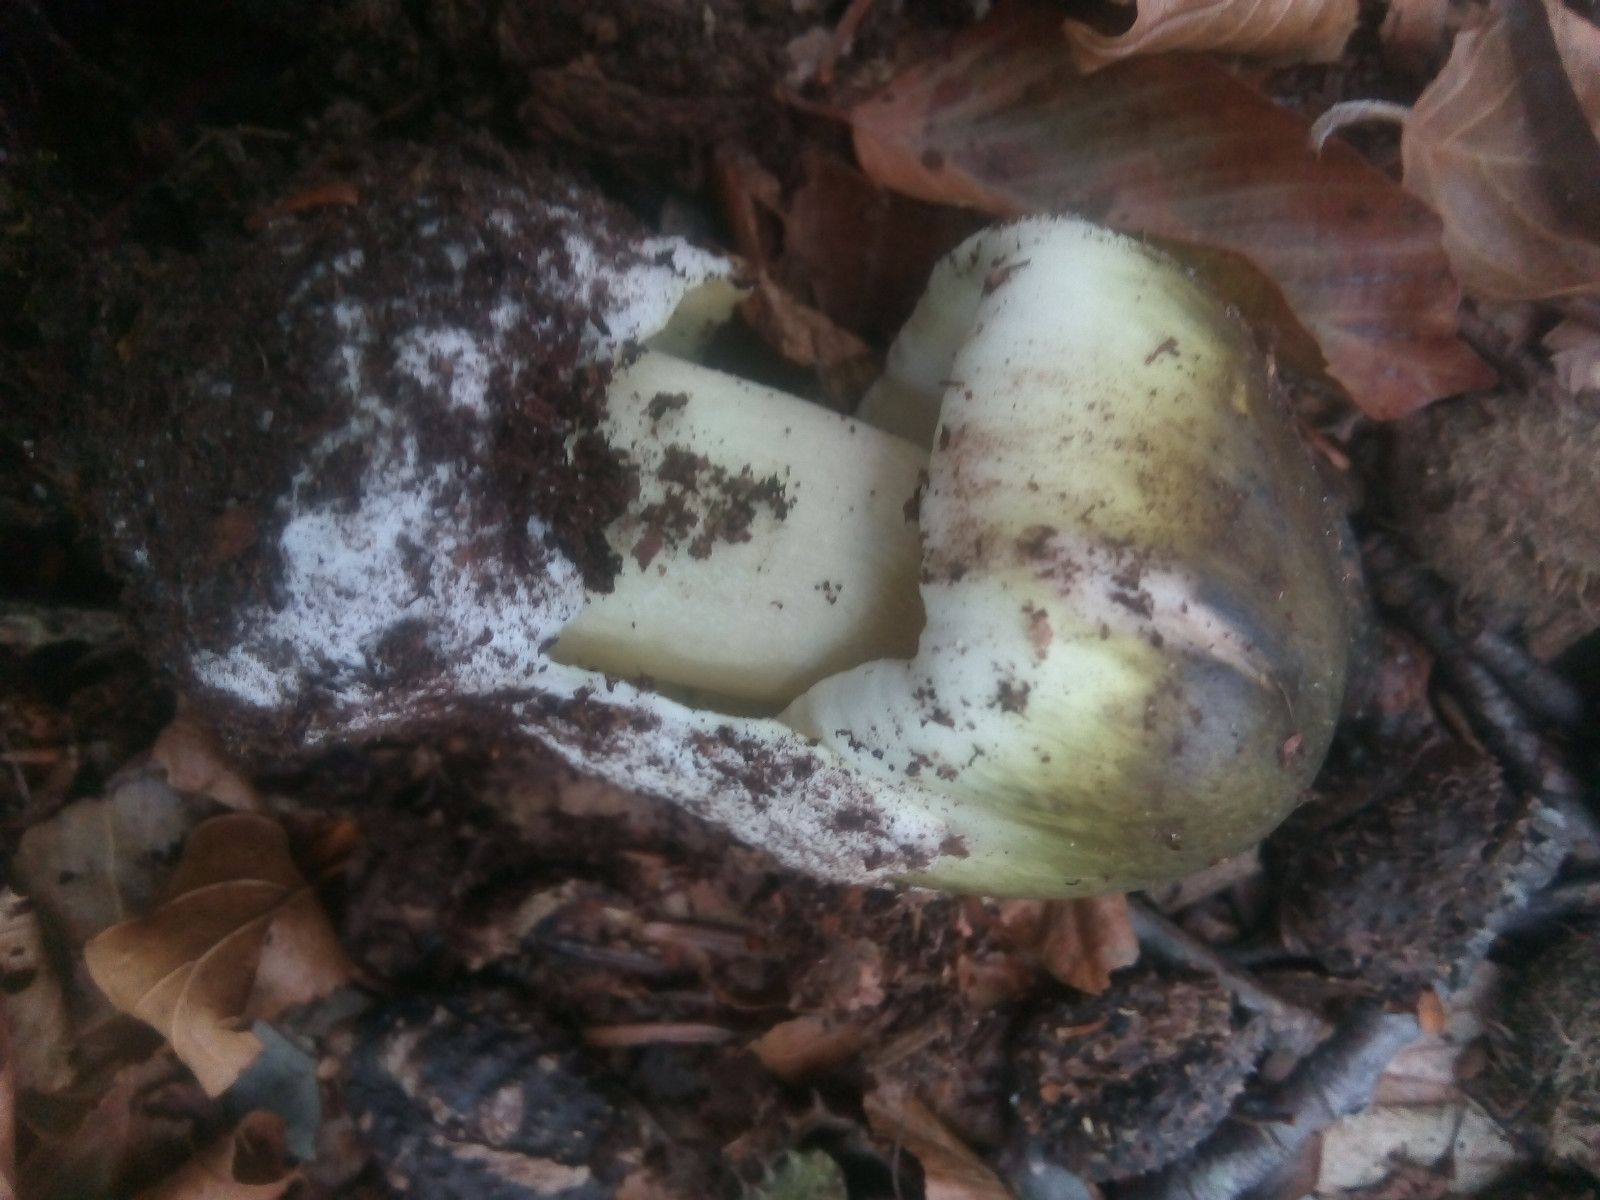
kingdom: Fungi
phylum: Basidiomycota
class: Agaricomycetes
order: Agaricales
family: Amanitaceae
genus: Amanita
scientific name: Amanita phalloides
